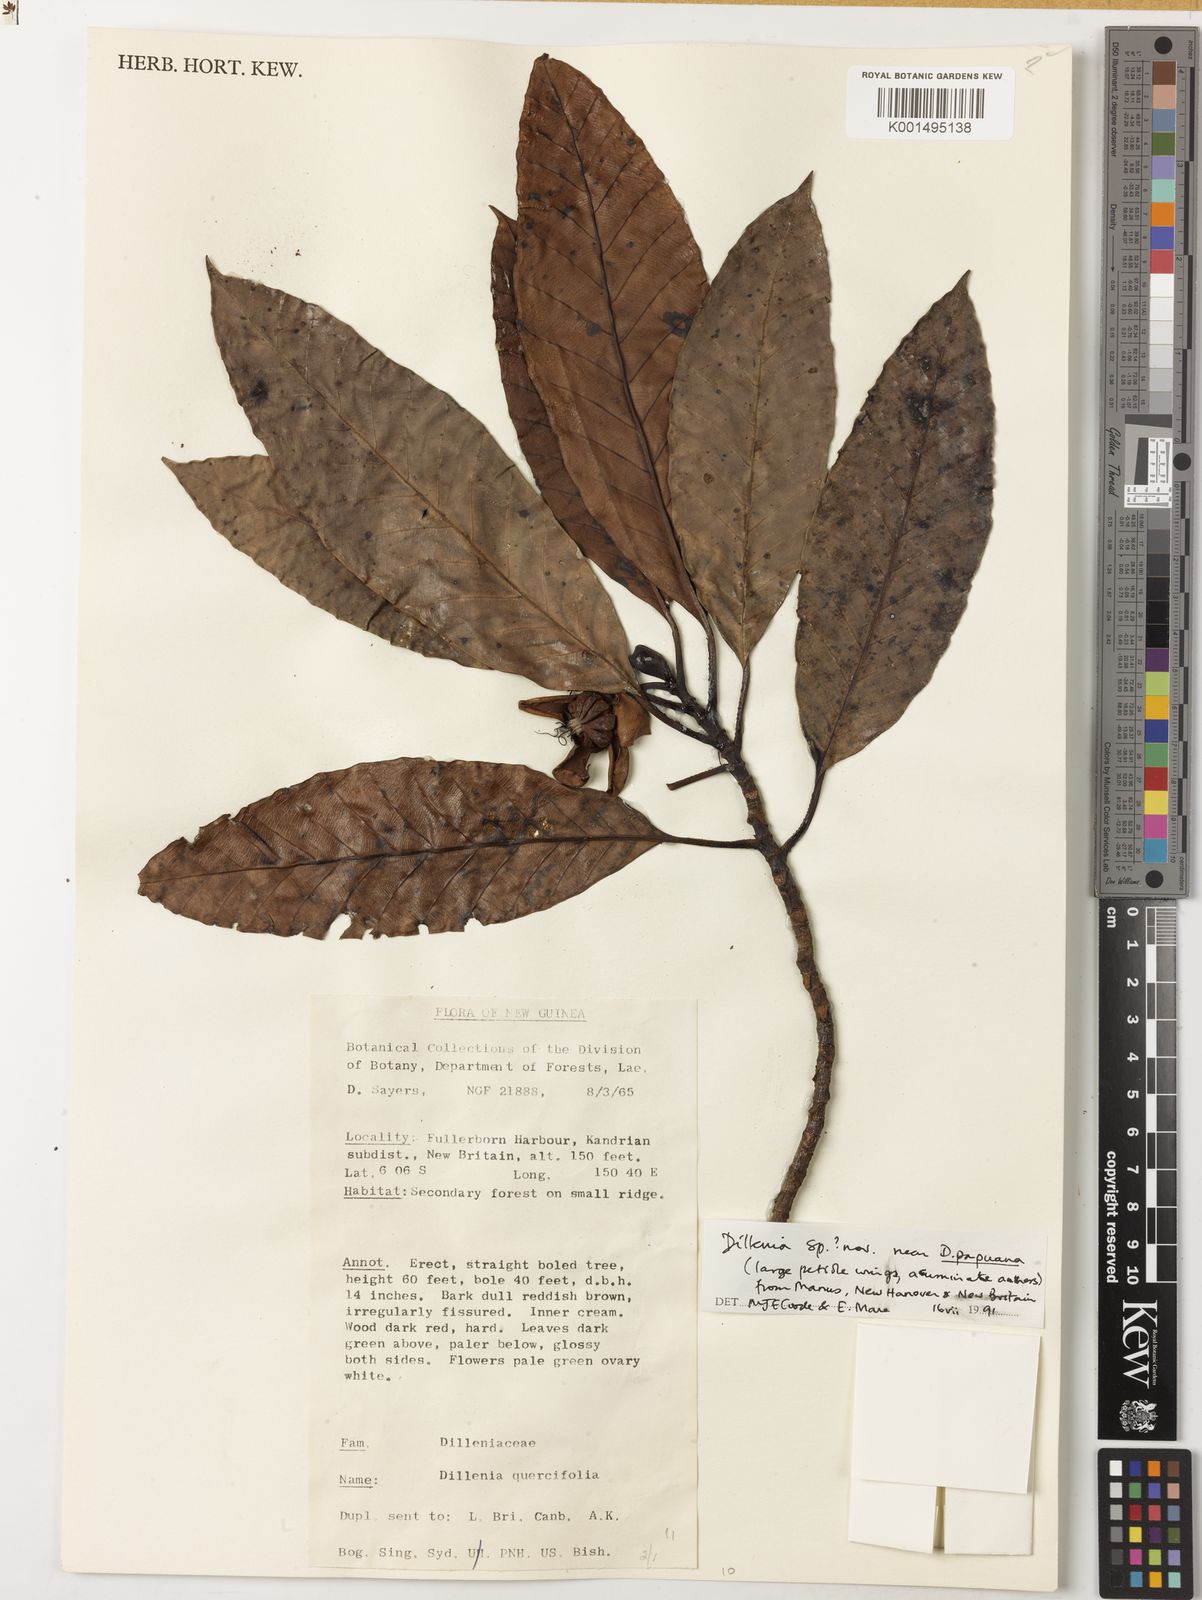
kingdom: Plantae
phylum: Tracheophyta
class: Magnoliopsida
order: Dilleniales
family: Dilleniaceae
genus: Dillenia
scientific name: Dillenia
